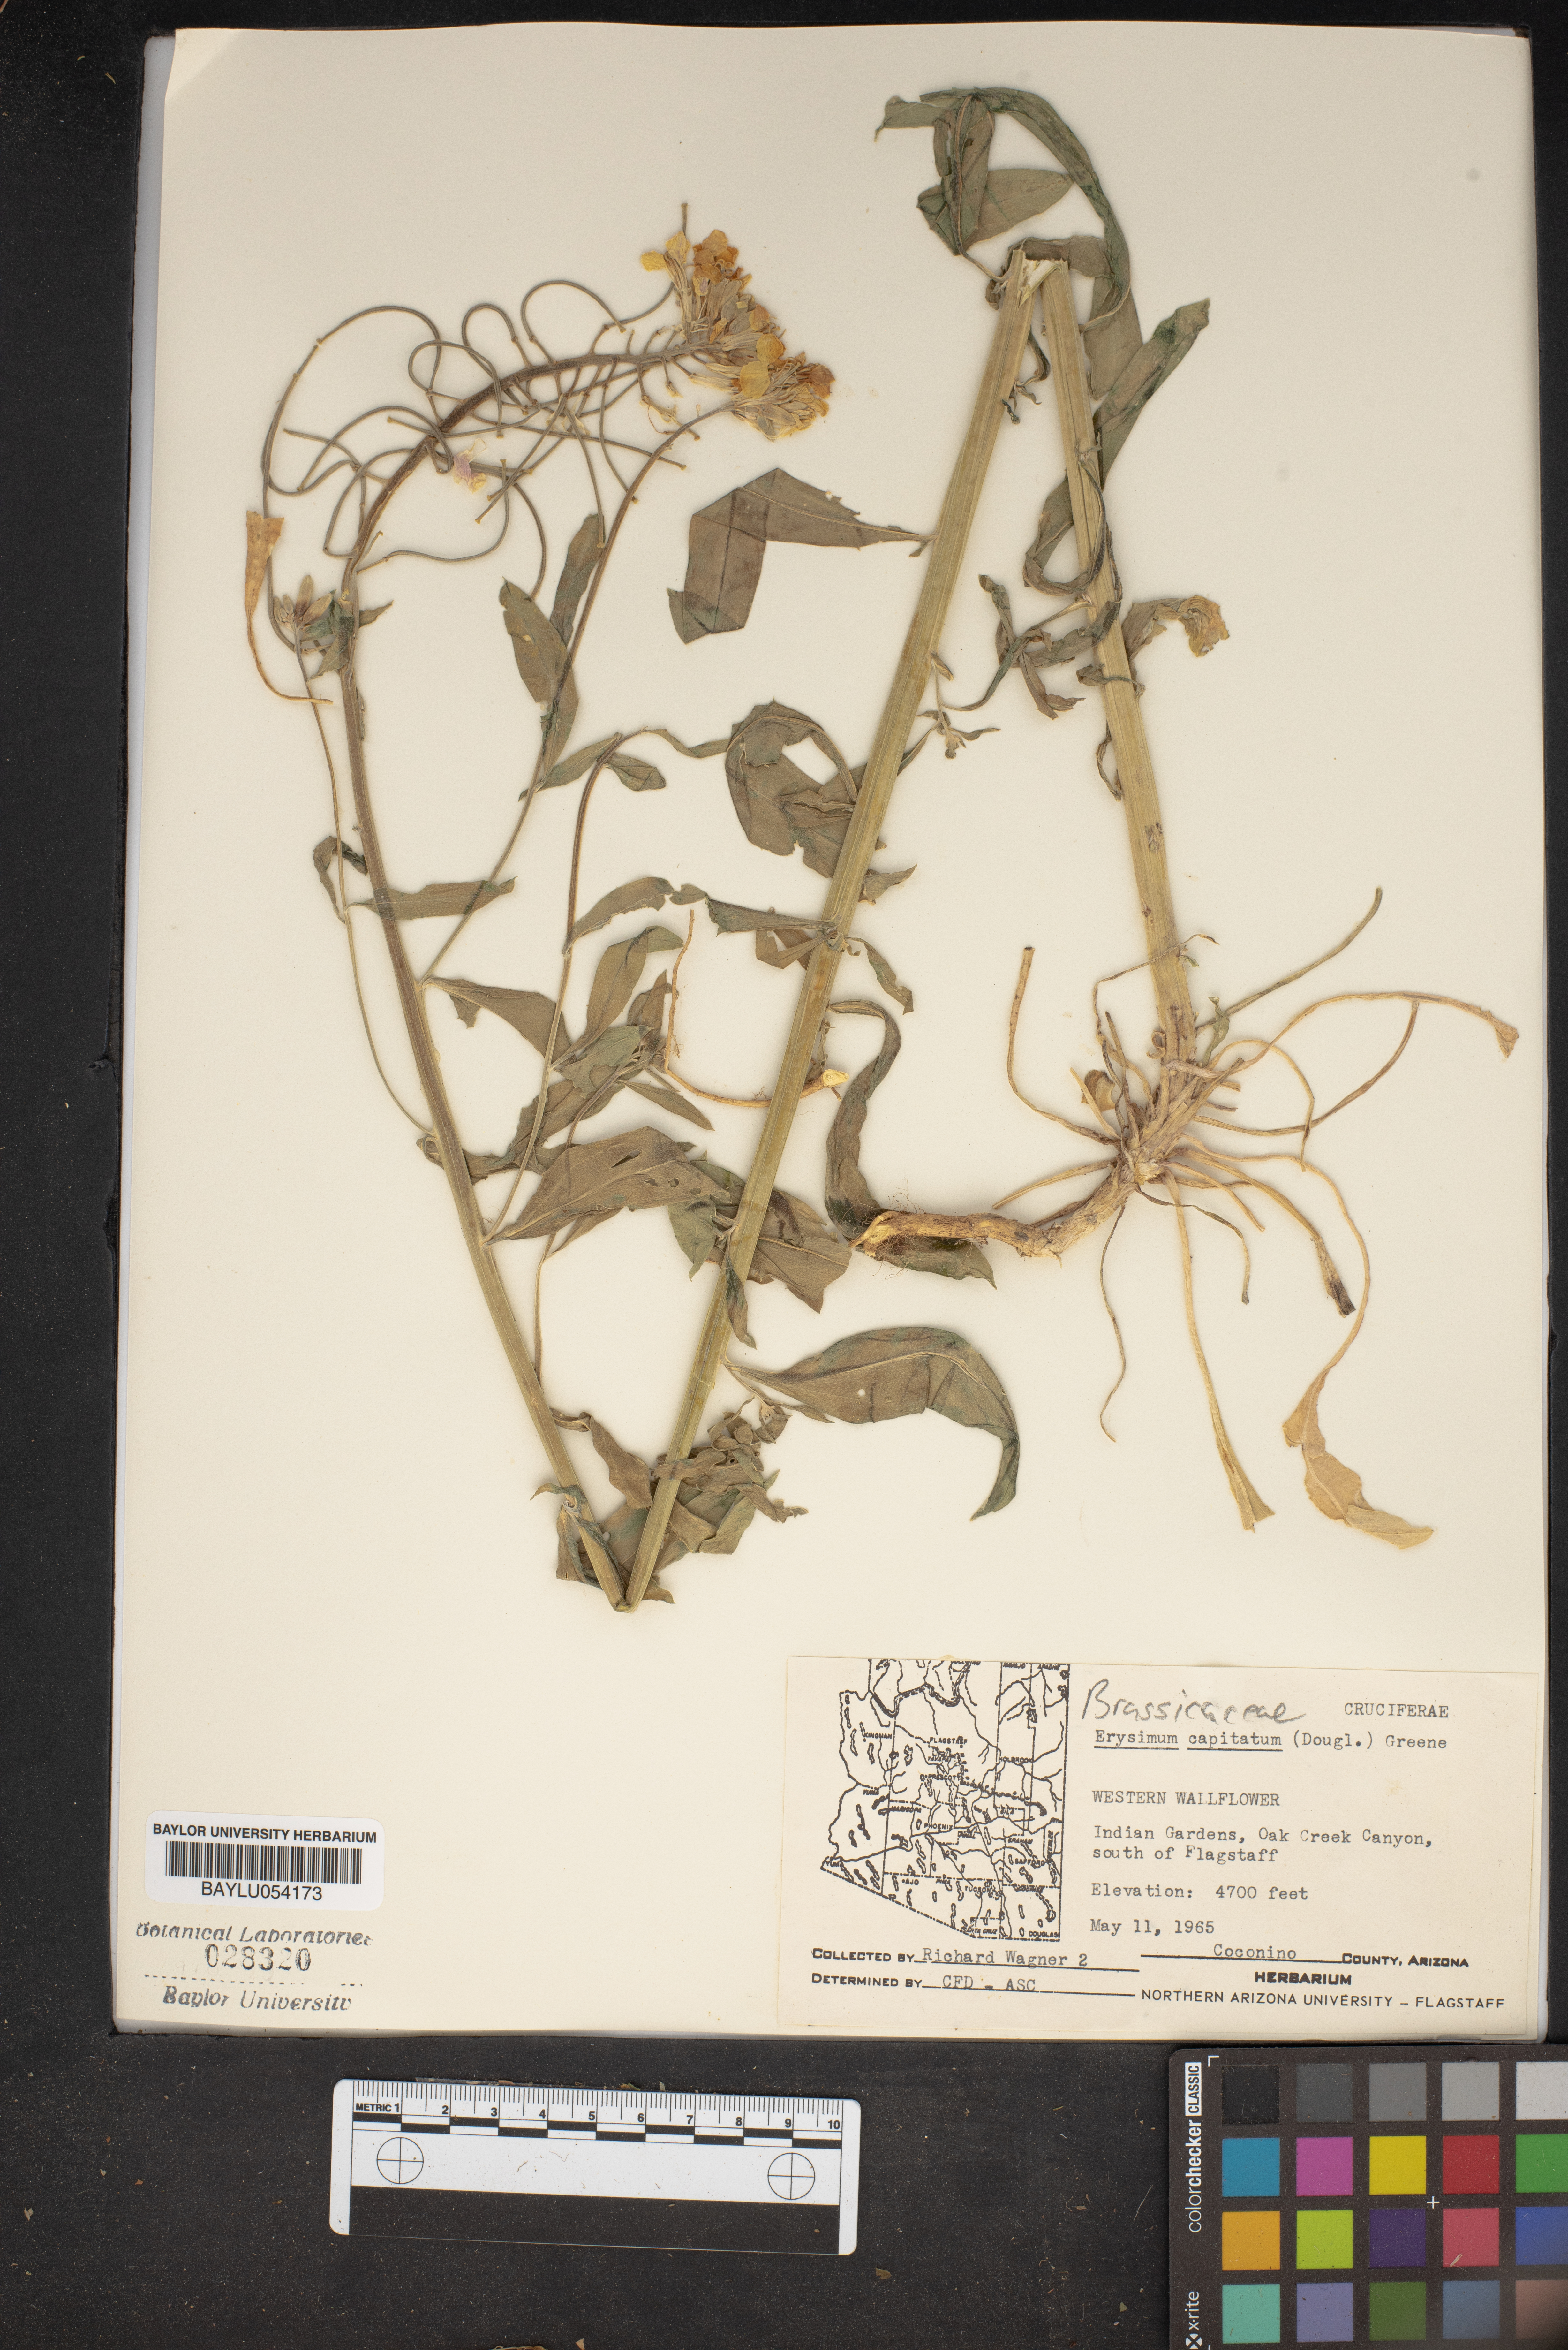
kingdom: Plantae
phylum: Tracheophyta
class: Magnoliopsida
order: Brassicales
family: Brassicaceae
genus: Erysimum
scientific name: Erysimum capitatum
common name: Western wallflower
